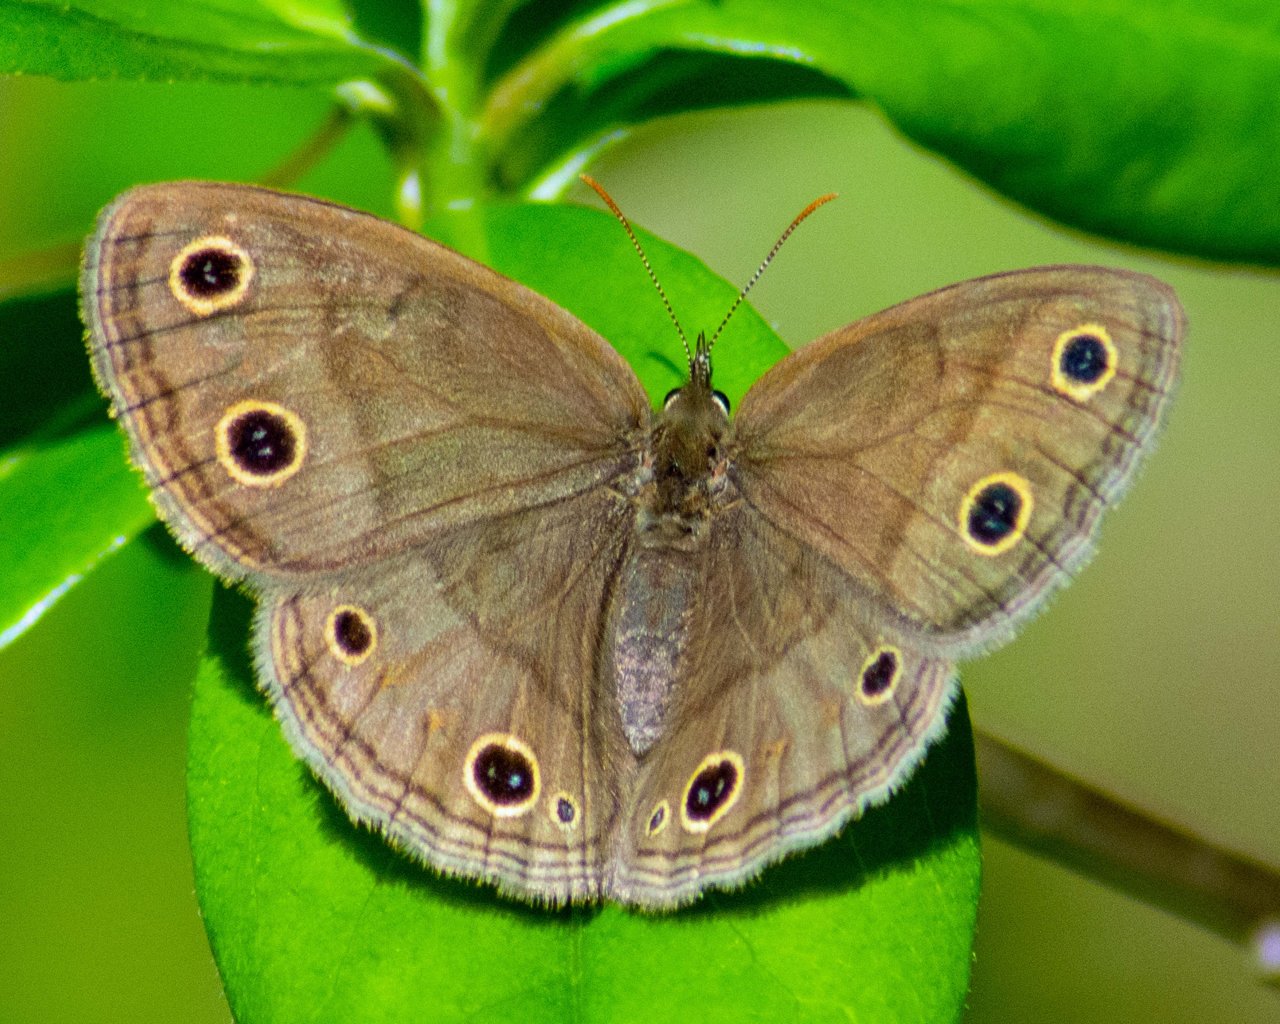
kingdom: Animalia
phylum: Arthropoda
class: Insecta
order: Lepidoptera
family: Nymphalidae
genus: Euptychia
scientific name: Euptychia cymela
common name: Little Wood Satyr
